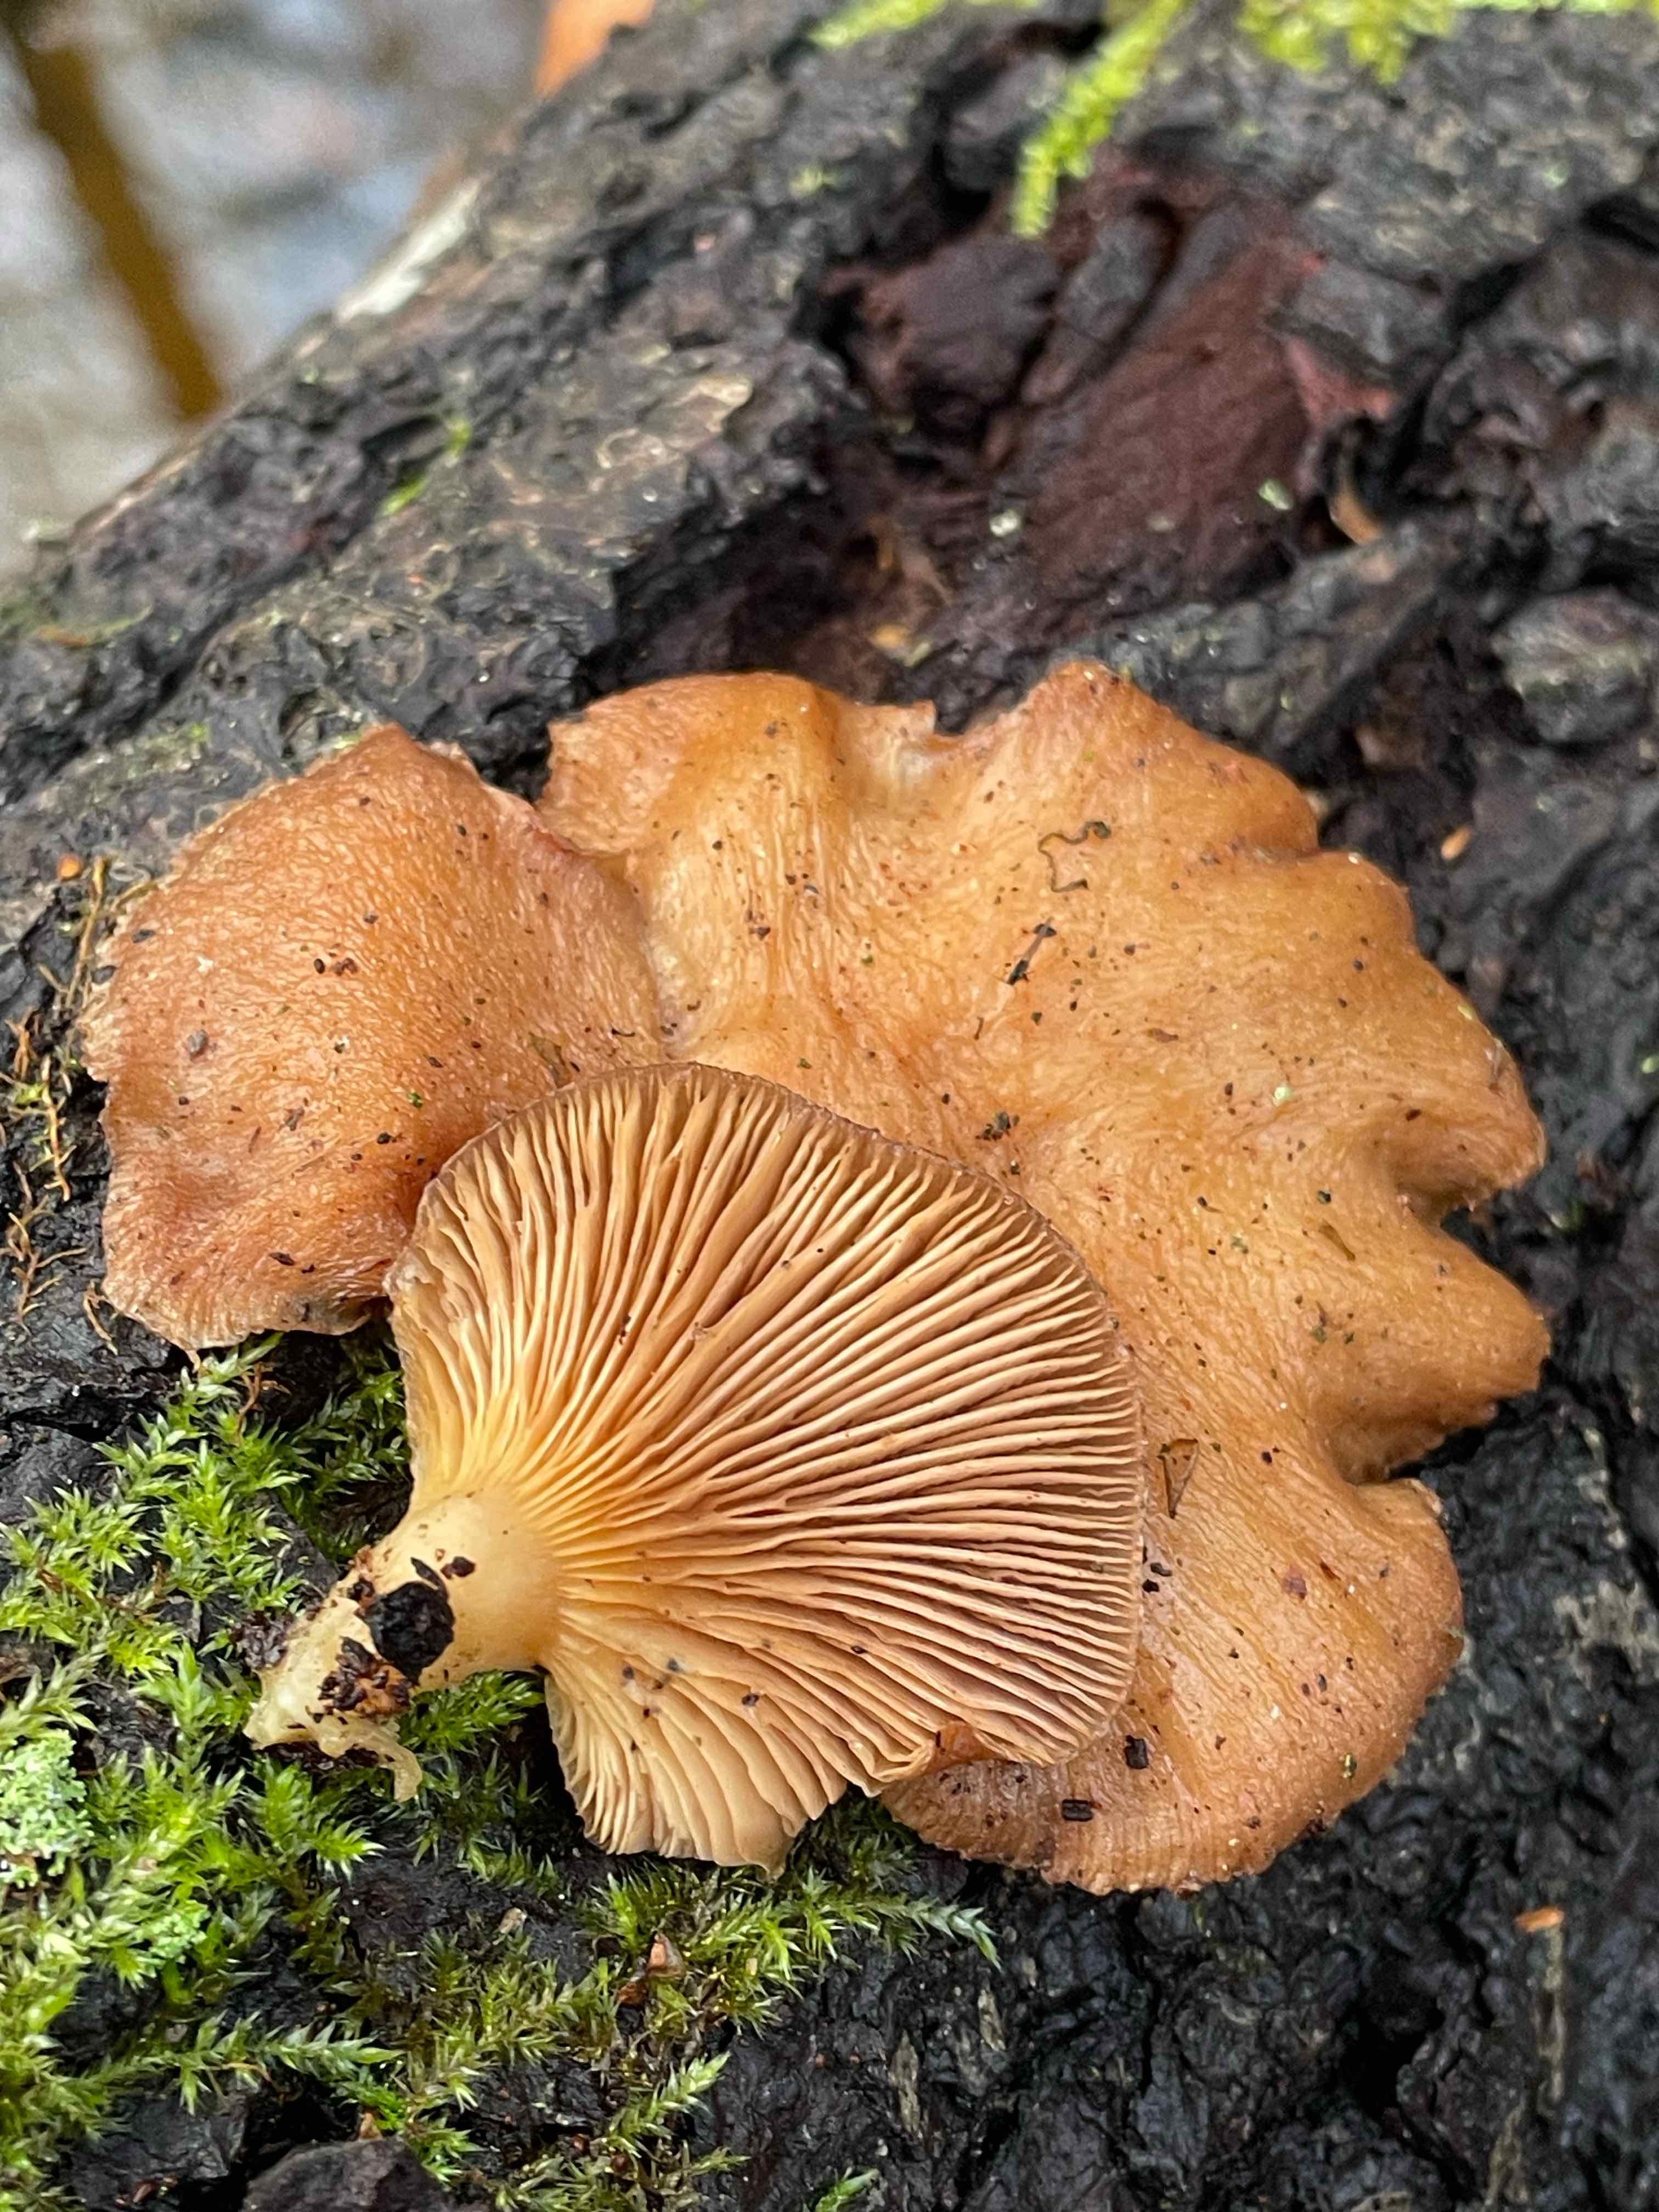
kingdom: Fungi
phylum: Basidiomycota
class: Agaricomycetes
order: Agaricales
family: Sarcomyxaceae
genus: Sarcomyxa
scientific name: Sarcomyxa serotina
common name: gummihat
